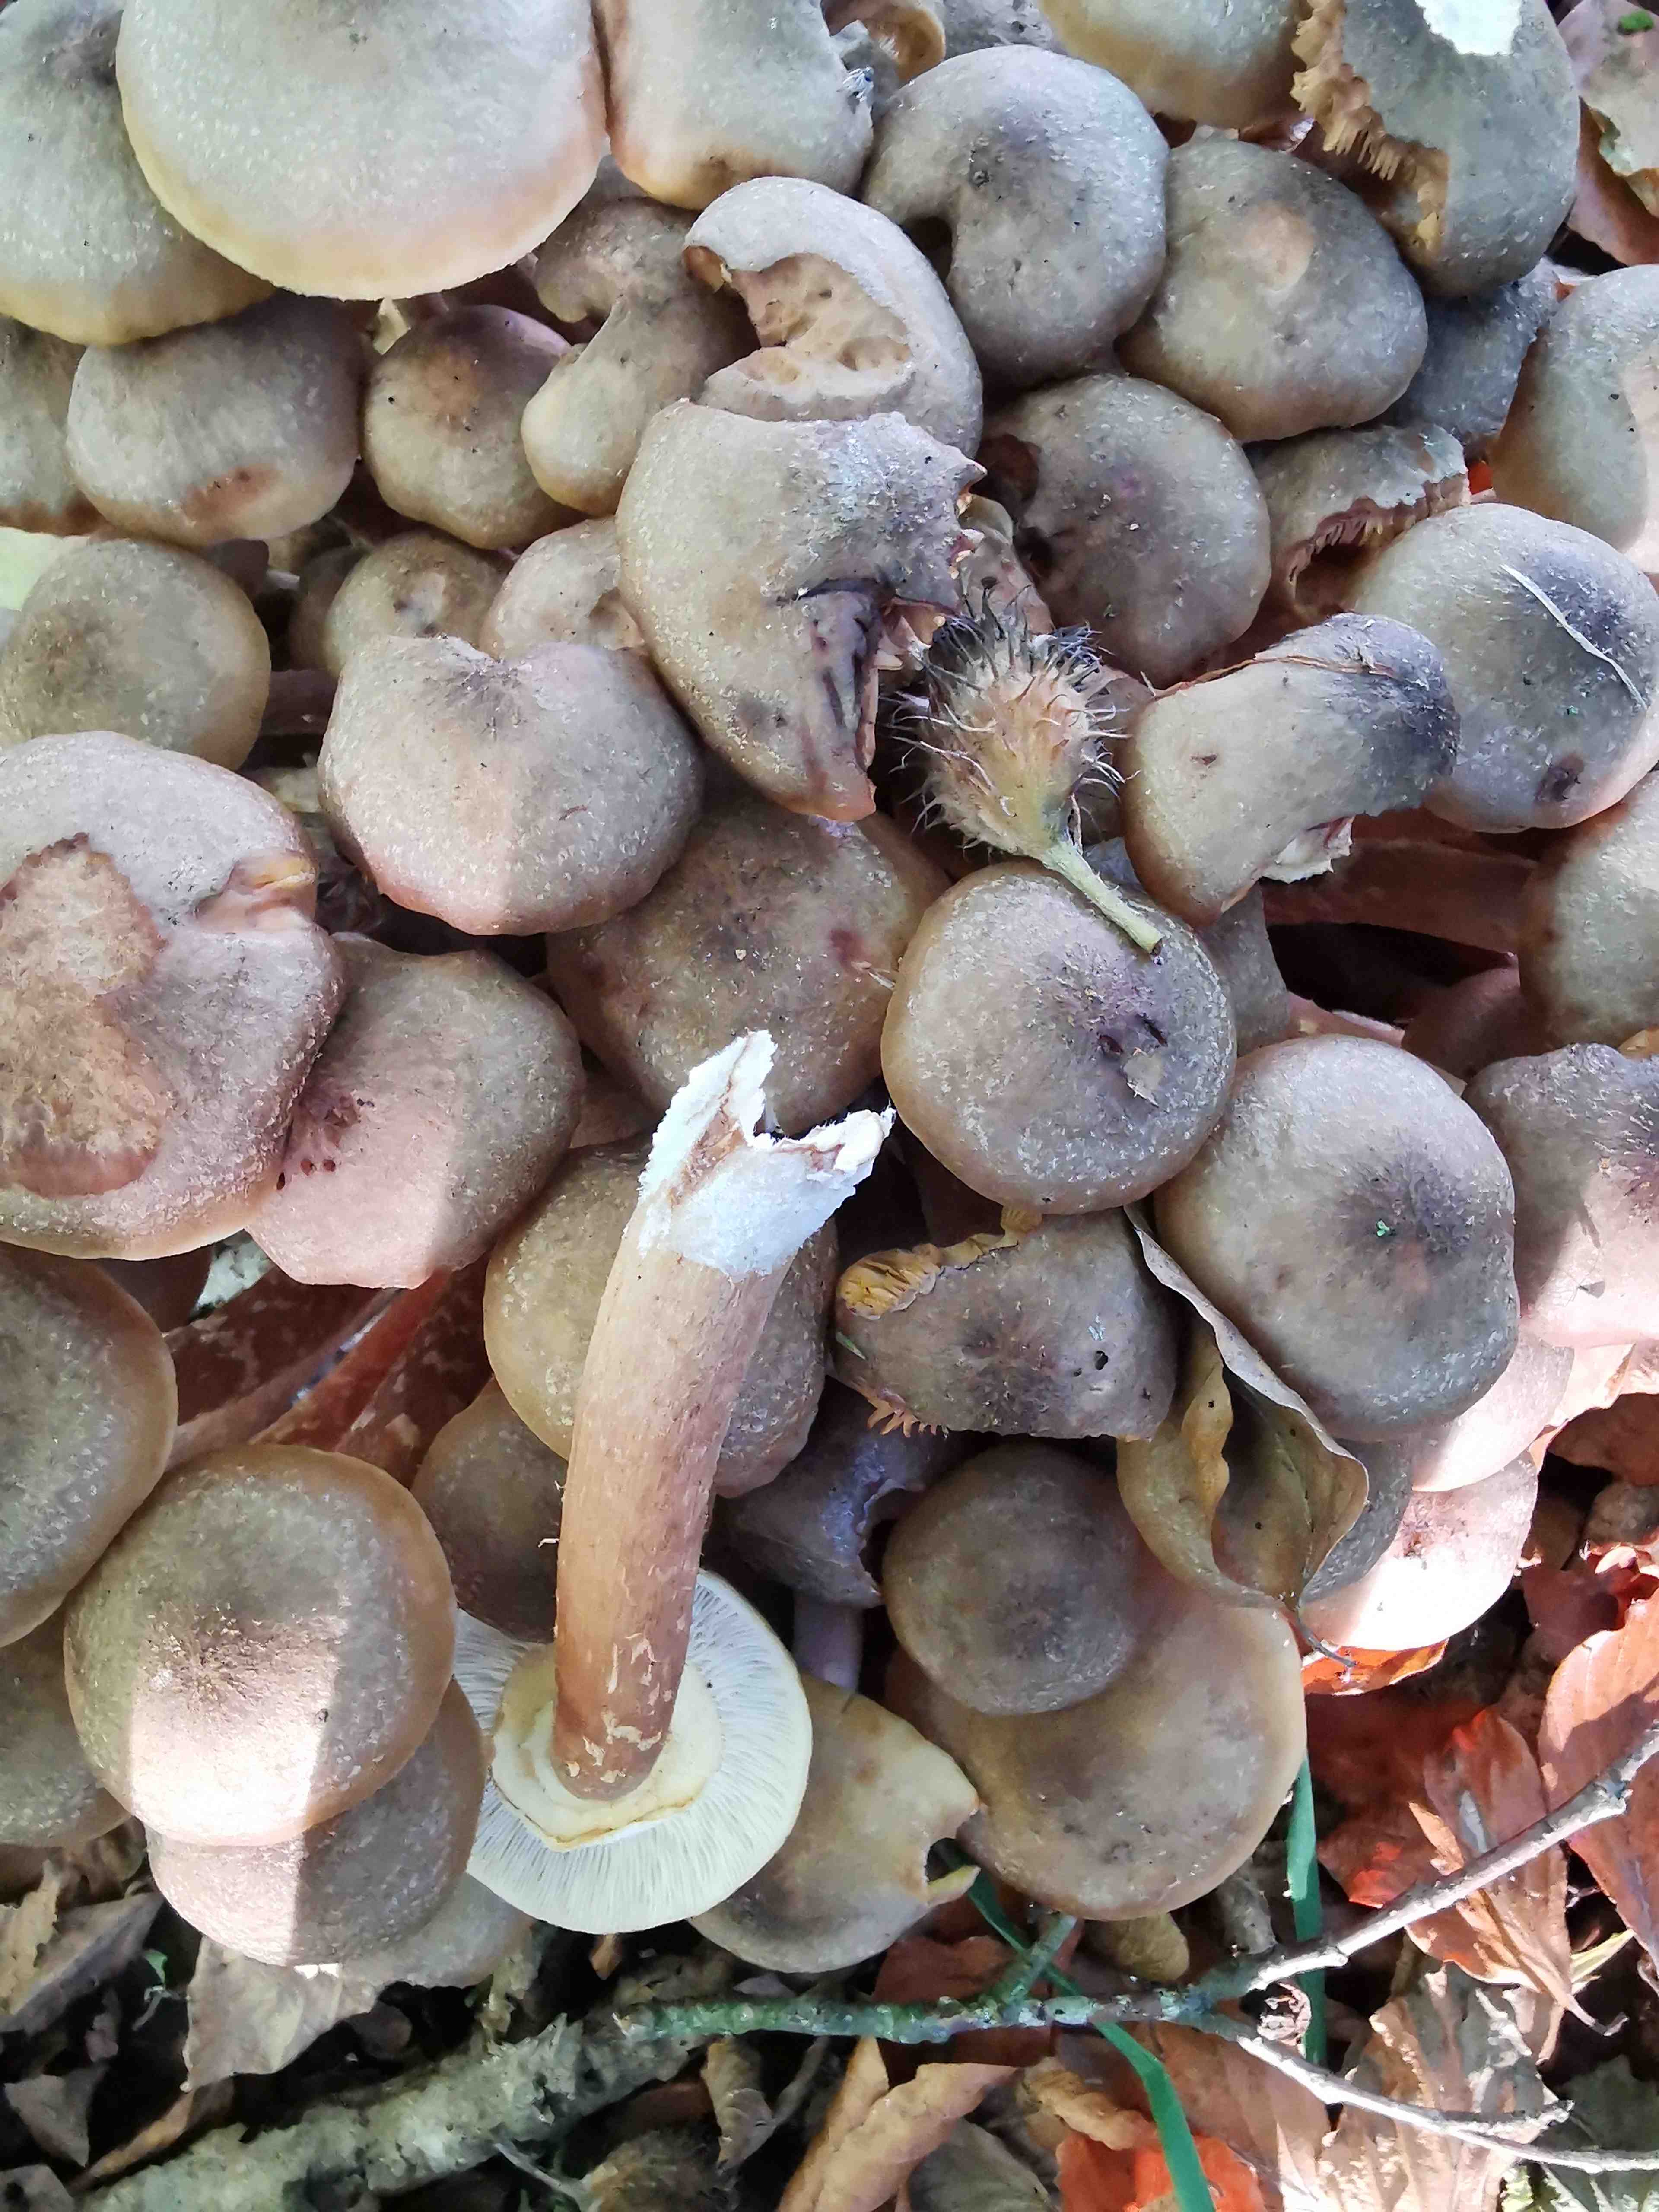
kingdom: Fungi
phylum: Basidiomycota
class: Agaricomycetes
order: Agaricales
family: Physalacriaceae
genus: Armillaria
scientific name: Armillaria mellea
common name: ægte honningsvamp
